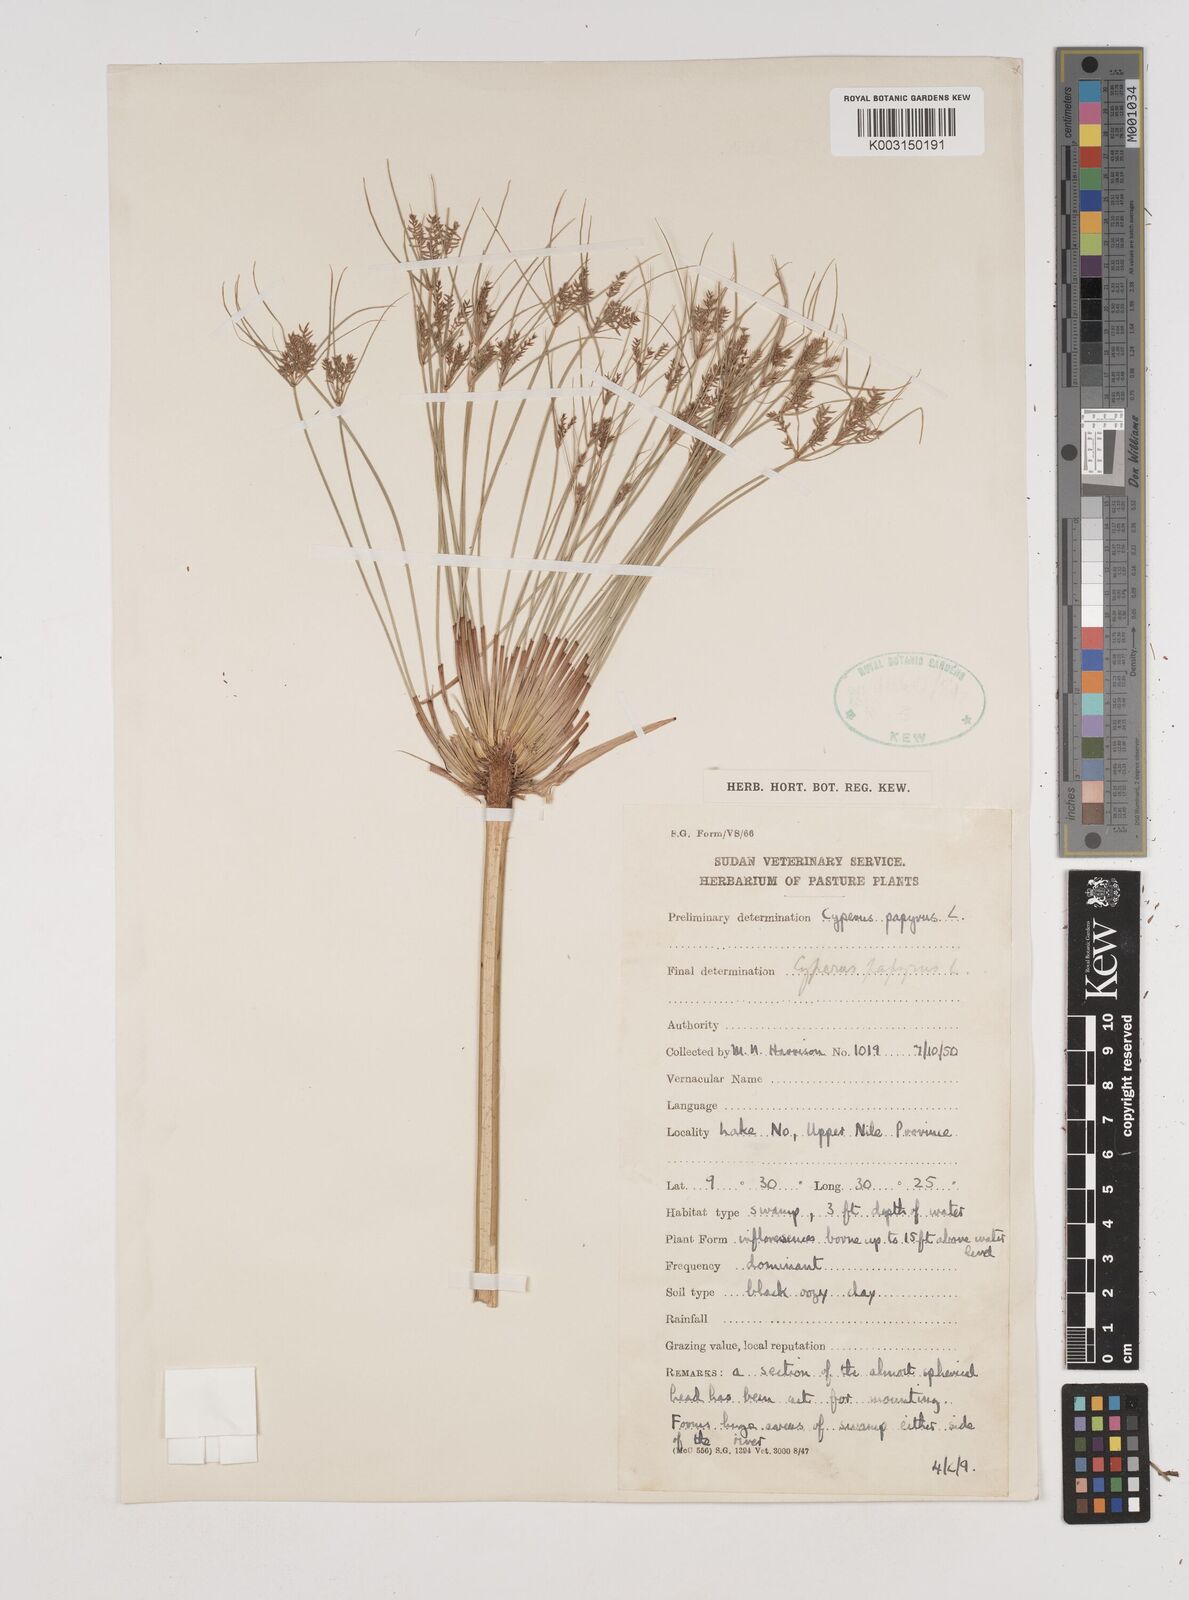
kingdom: Plantae
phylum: Tracheophyta
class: Liliopsida
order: Poales
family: Cyperaceae
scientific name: Cyperaceae
